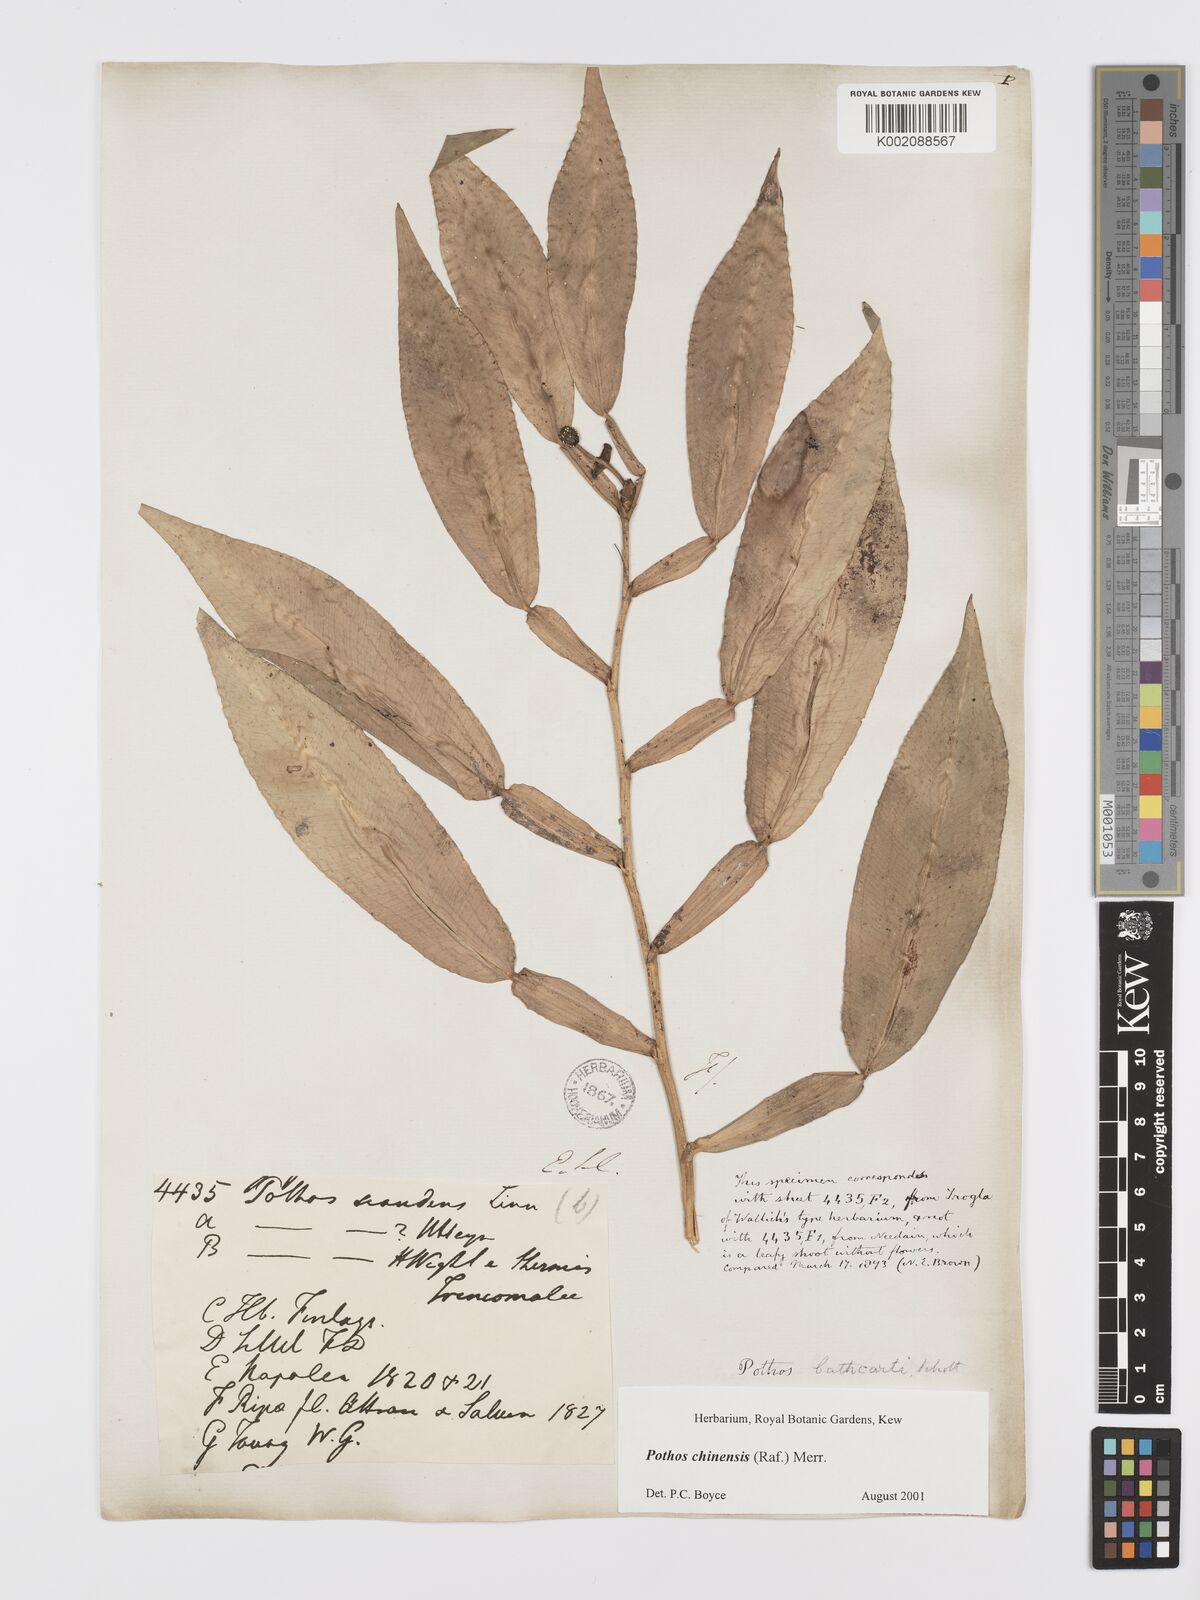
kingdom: Plantae
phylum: Tracheophyta
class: Liliopsida
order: Alismatales
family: Araceae
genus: Pothos
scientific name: Pothos chinensis
